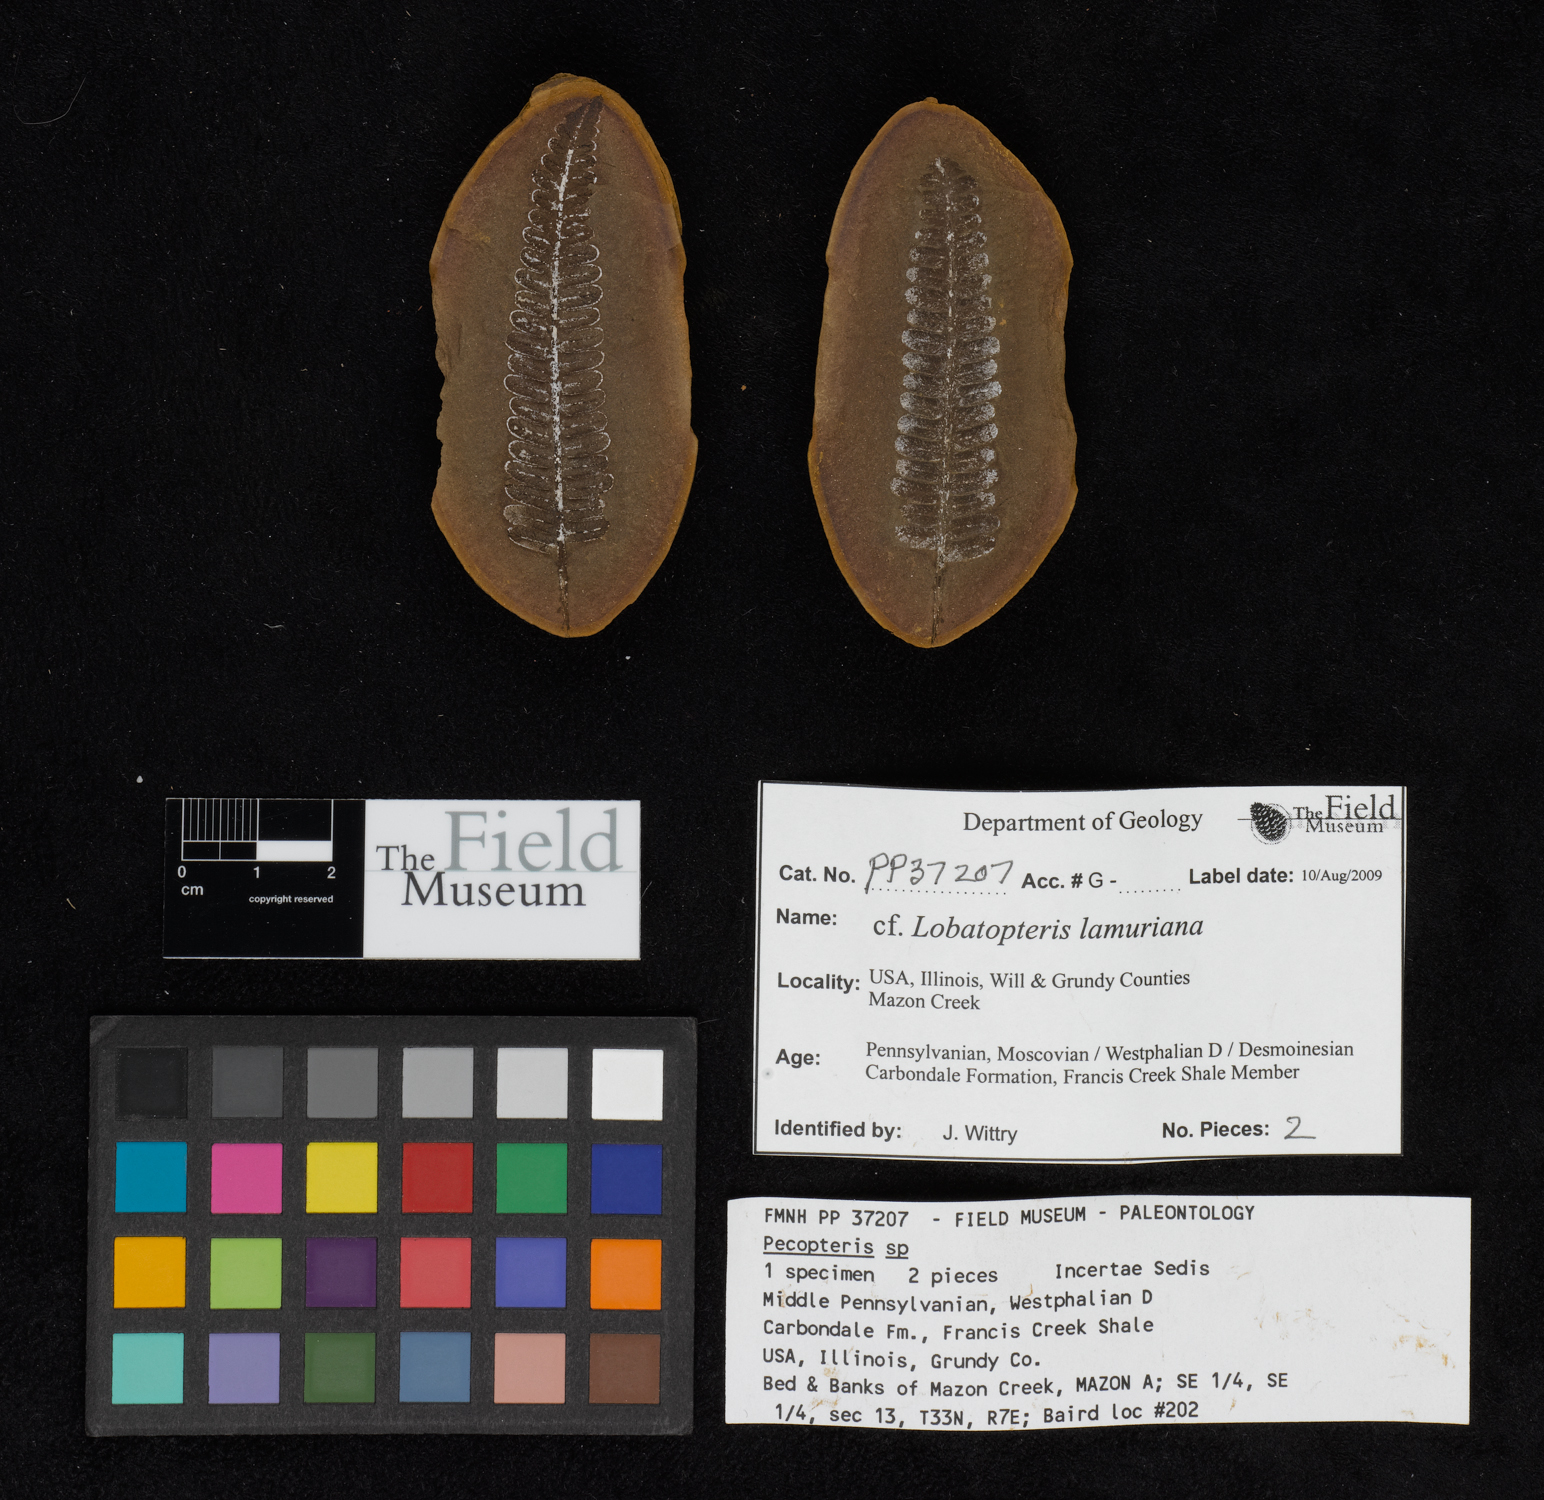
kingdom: Plantae
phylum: Tracheophyta
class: Polypodiopsida
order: Marattiales
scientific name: Marattiales
